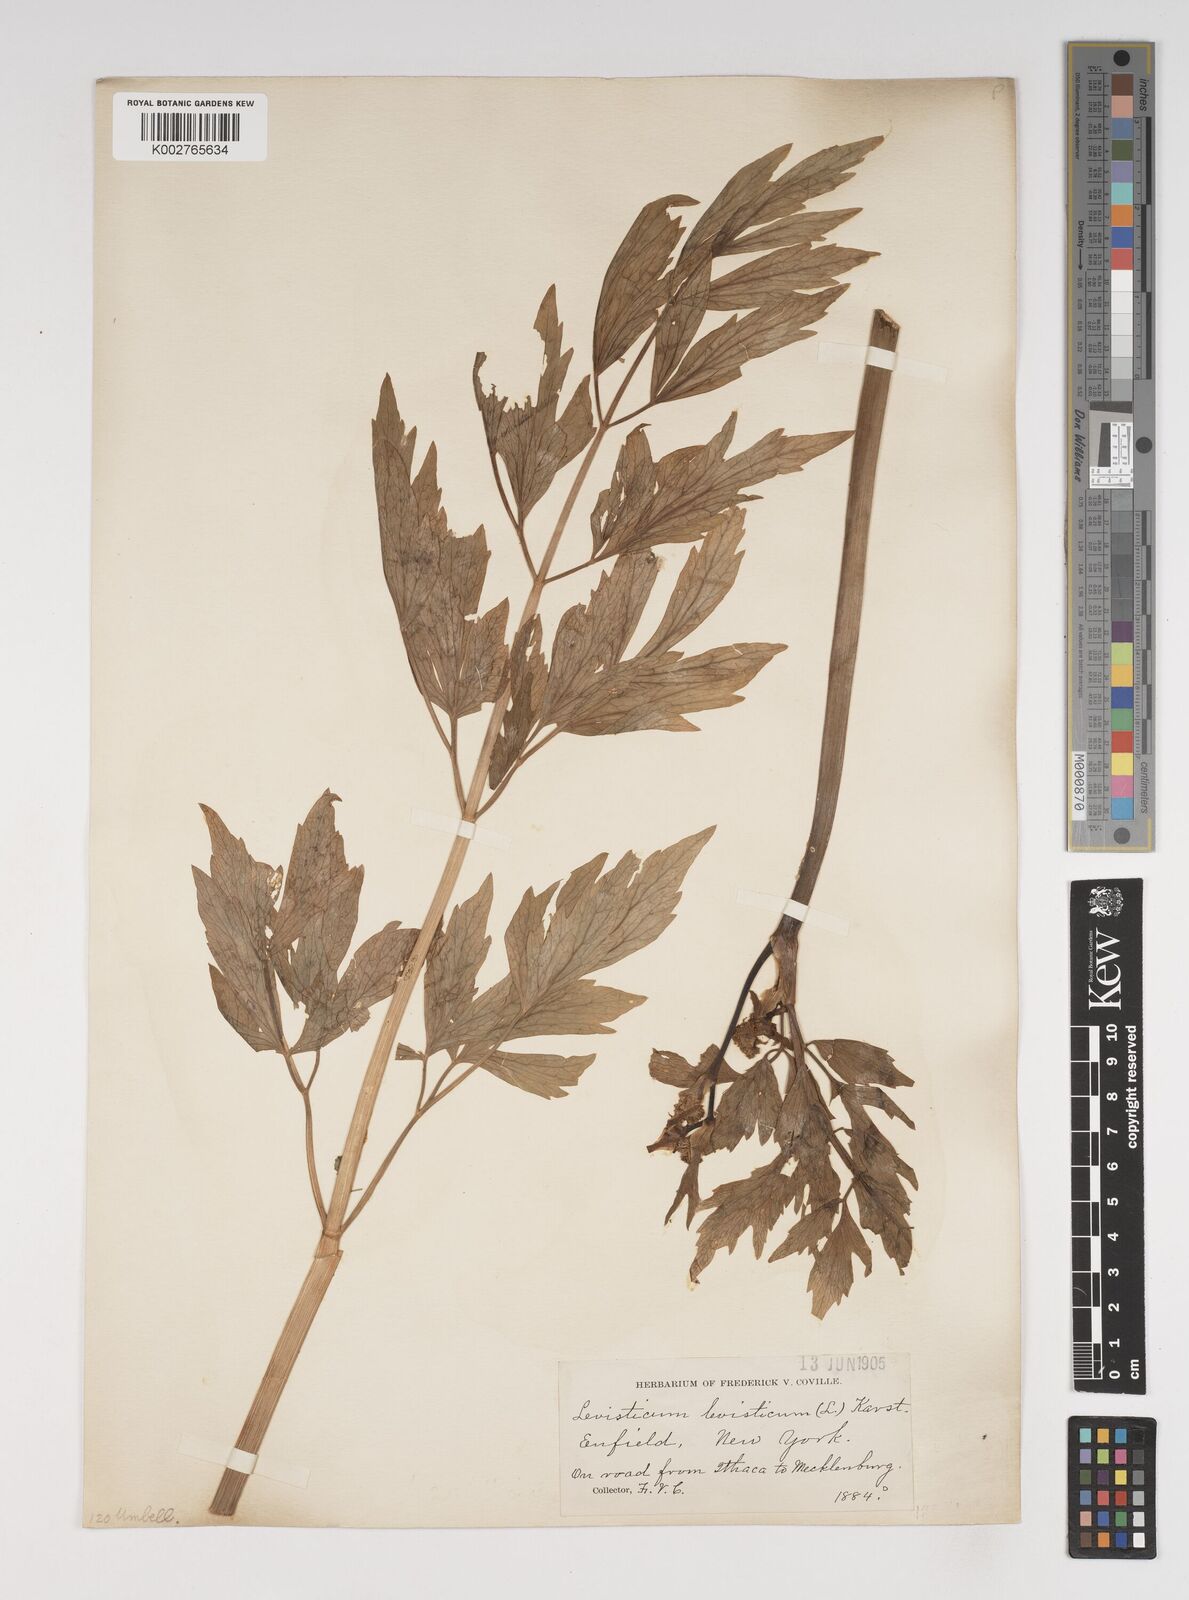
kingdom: Plantae
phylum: Tracheophyta
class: Magnoliopsida
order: Apiales
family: Apiaceae
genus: Levisticum
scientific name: Levisticum officinale
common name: Lovage
